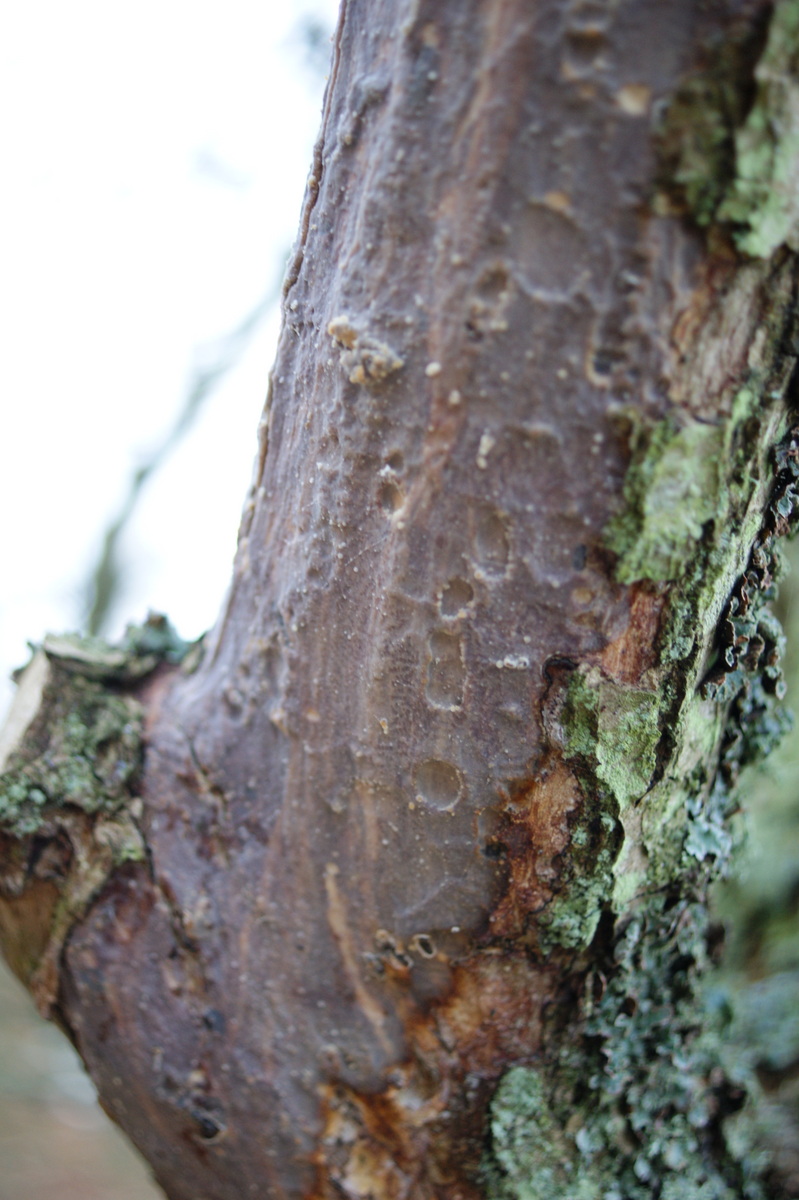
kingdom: Fungi
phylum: Basidiomycota
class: Agaricomycetes
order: Corticiales
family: Vuilleminiaceae
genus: Vuilleminia
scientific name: Vuilleminia comedens
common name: almindelig barksprænger
